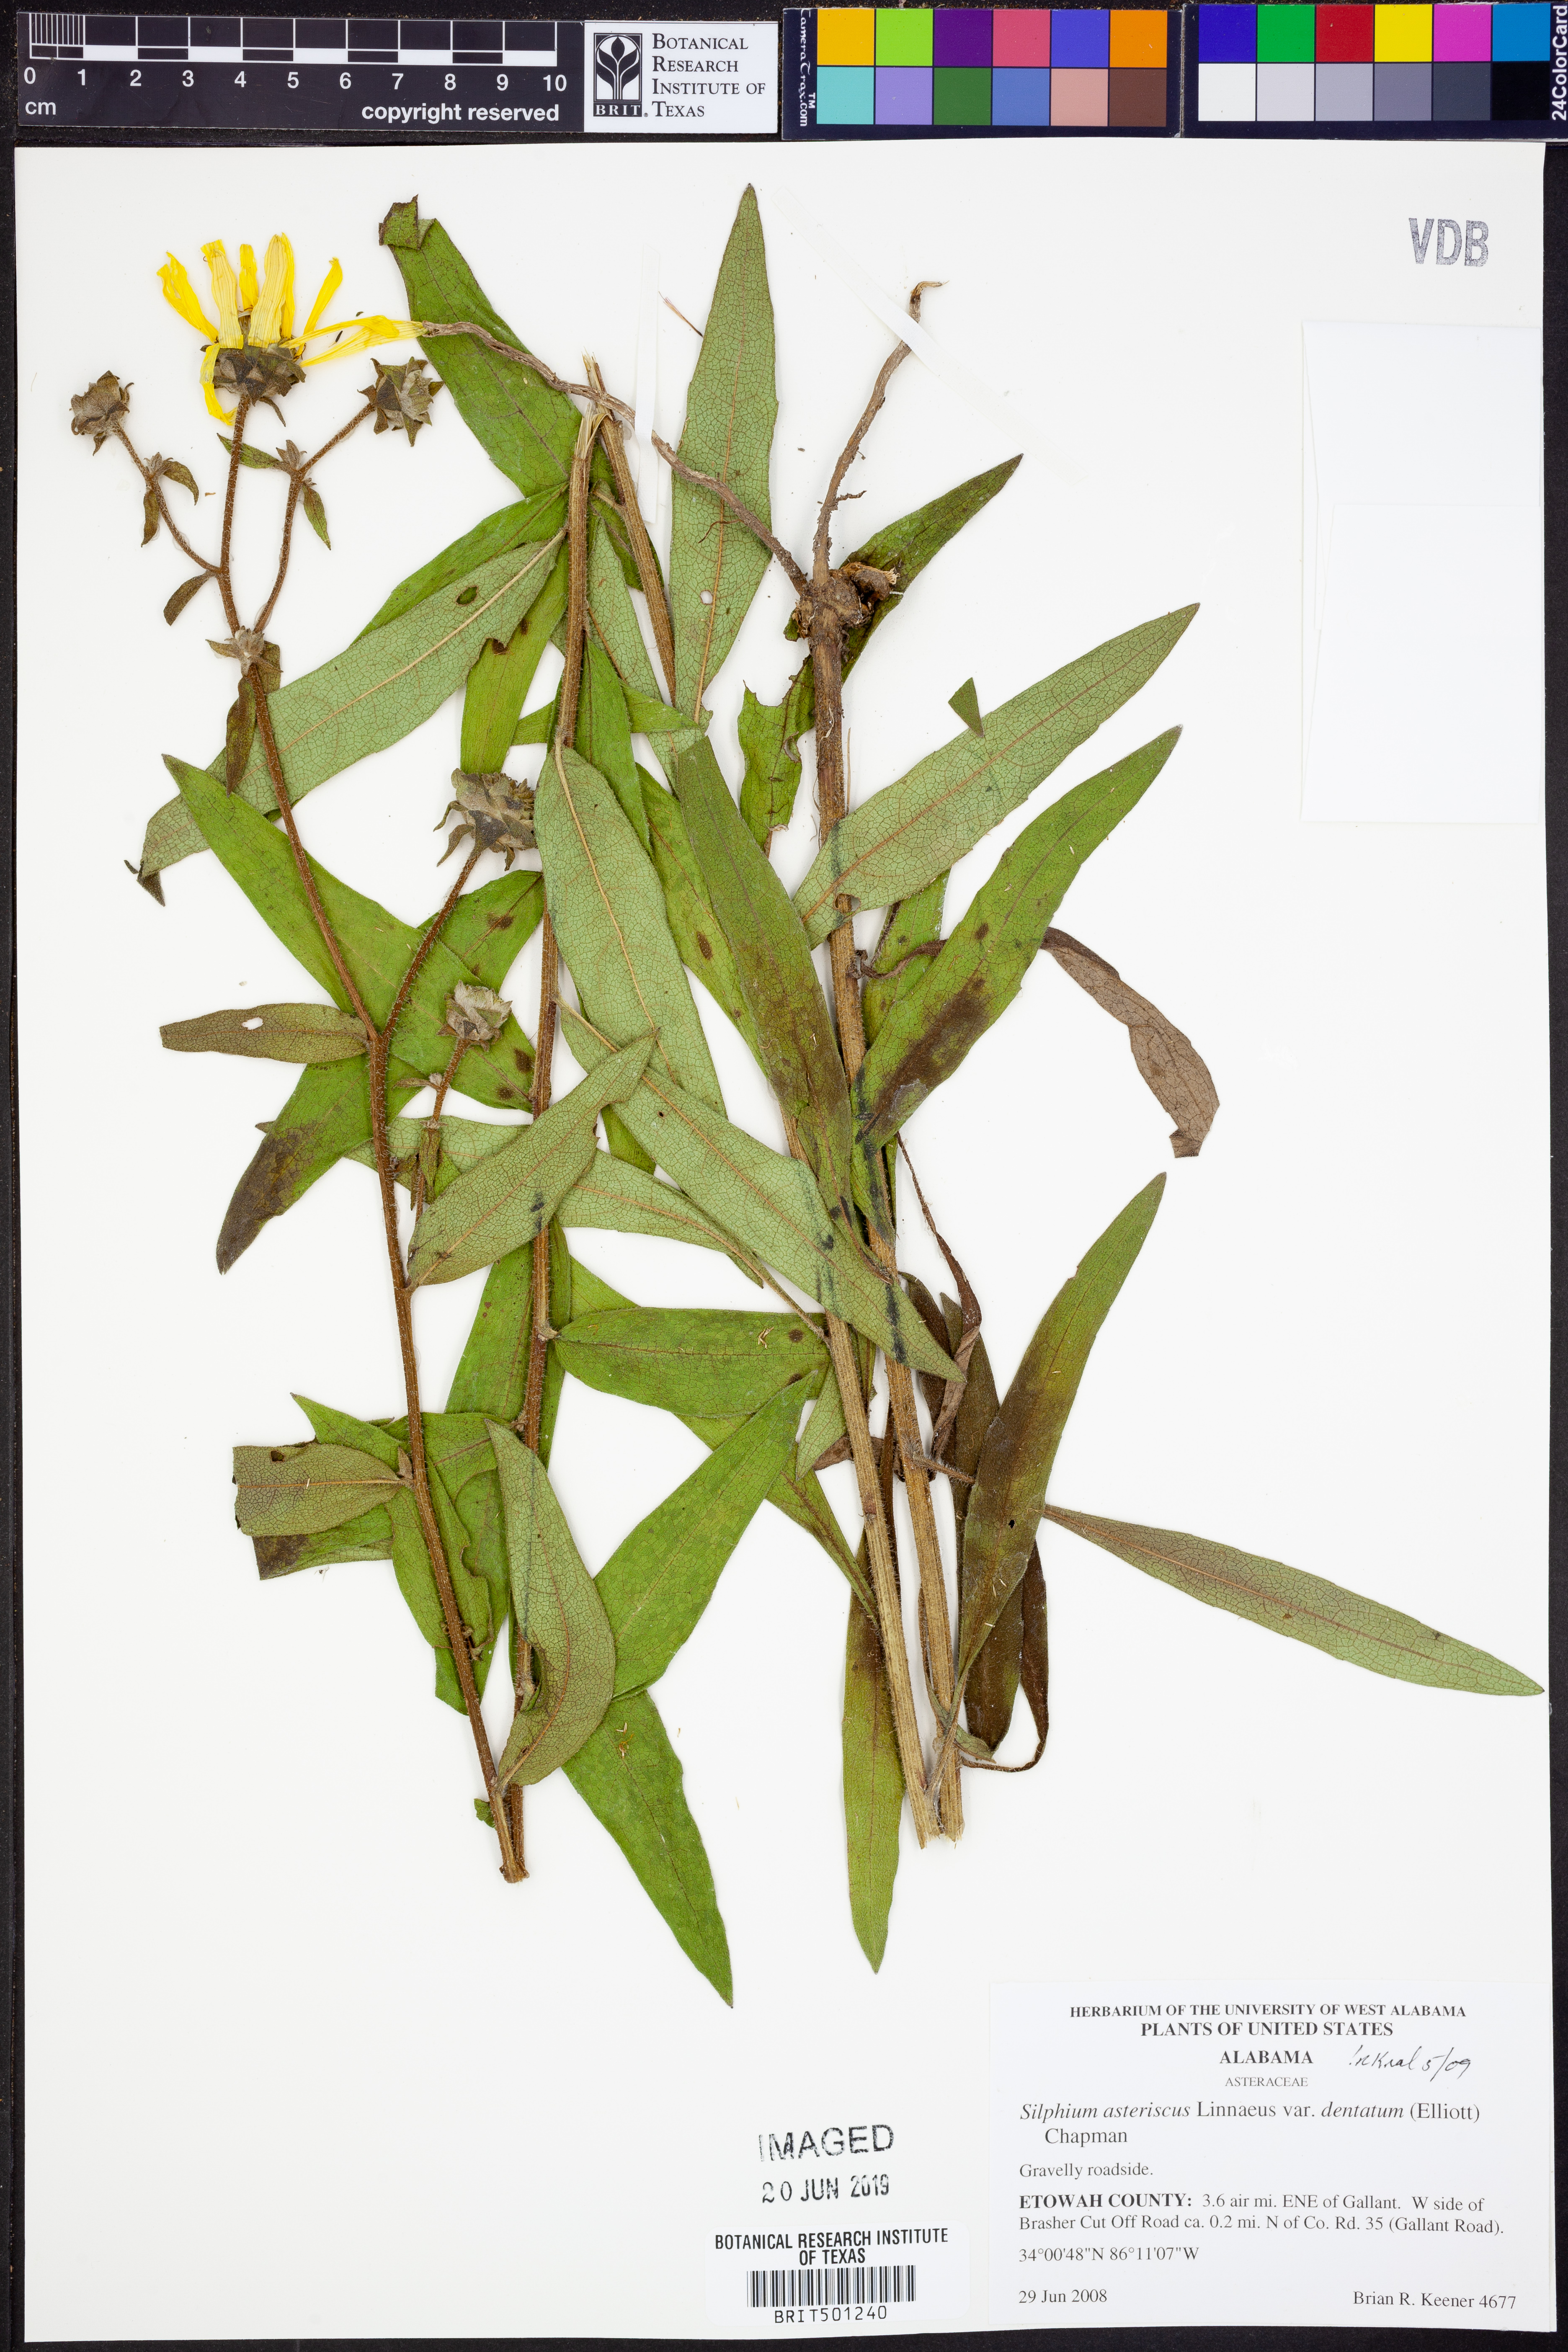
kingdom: Plantae
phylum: Tracheophyta
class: Magnoliopsida
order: Asterales
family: Asteraceae
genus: Silphium
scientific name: Silphium asteriscus
